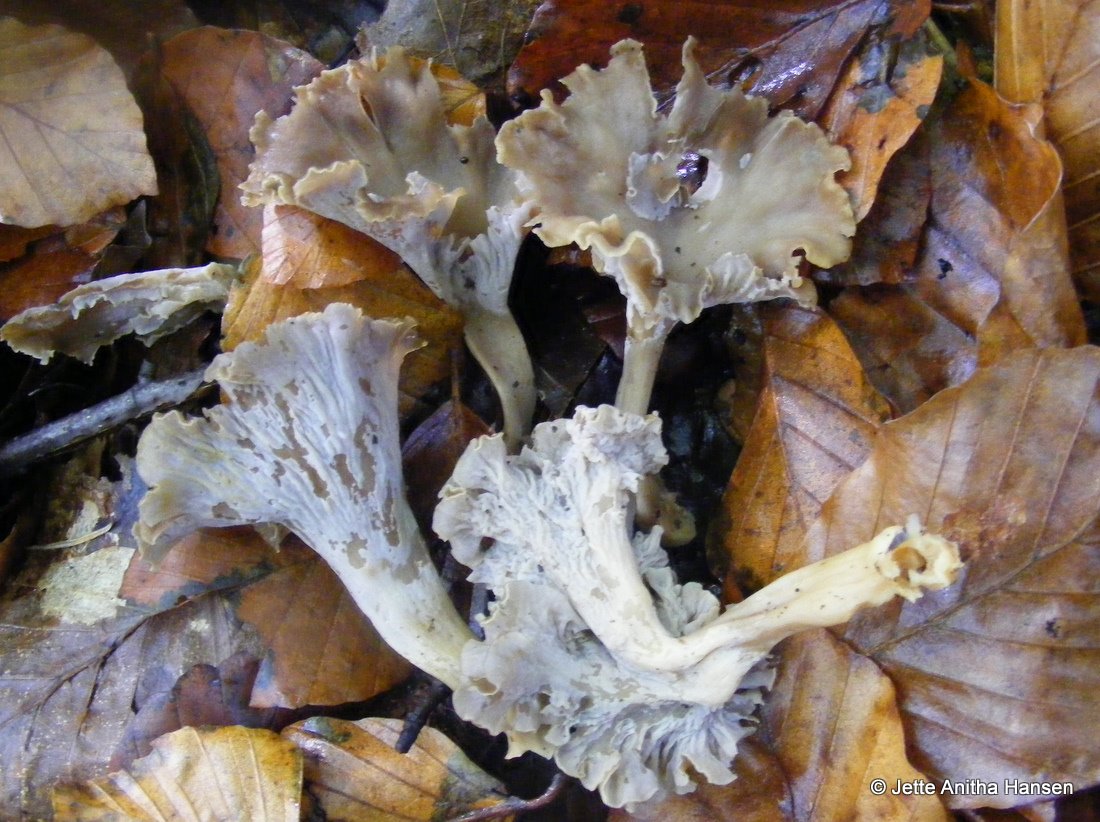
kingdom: Fungi
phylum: Basidiomycota
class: Agaricomycetes
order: Cantharellales
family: Hydnaceae
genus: Craterellus
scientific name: Craterellus undulatus
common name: liden kantarel
